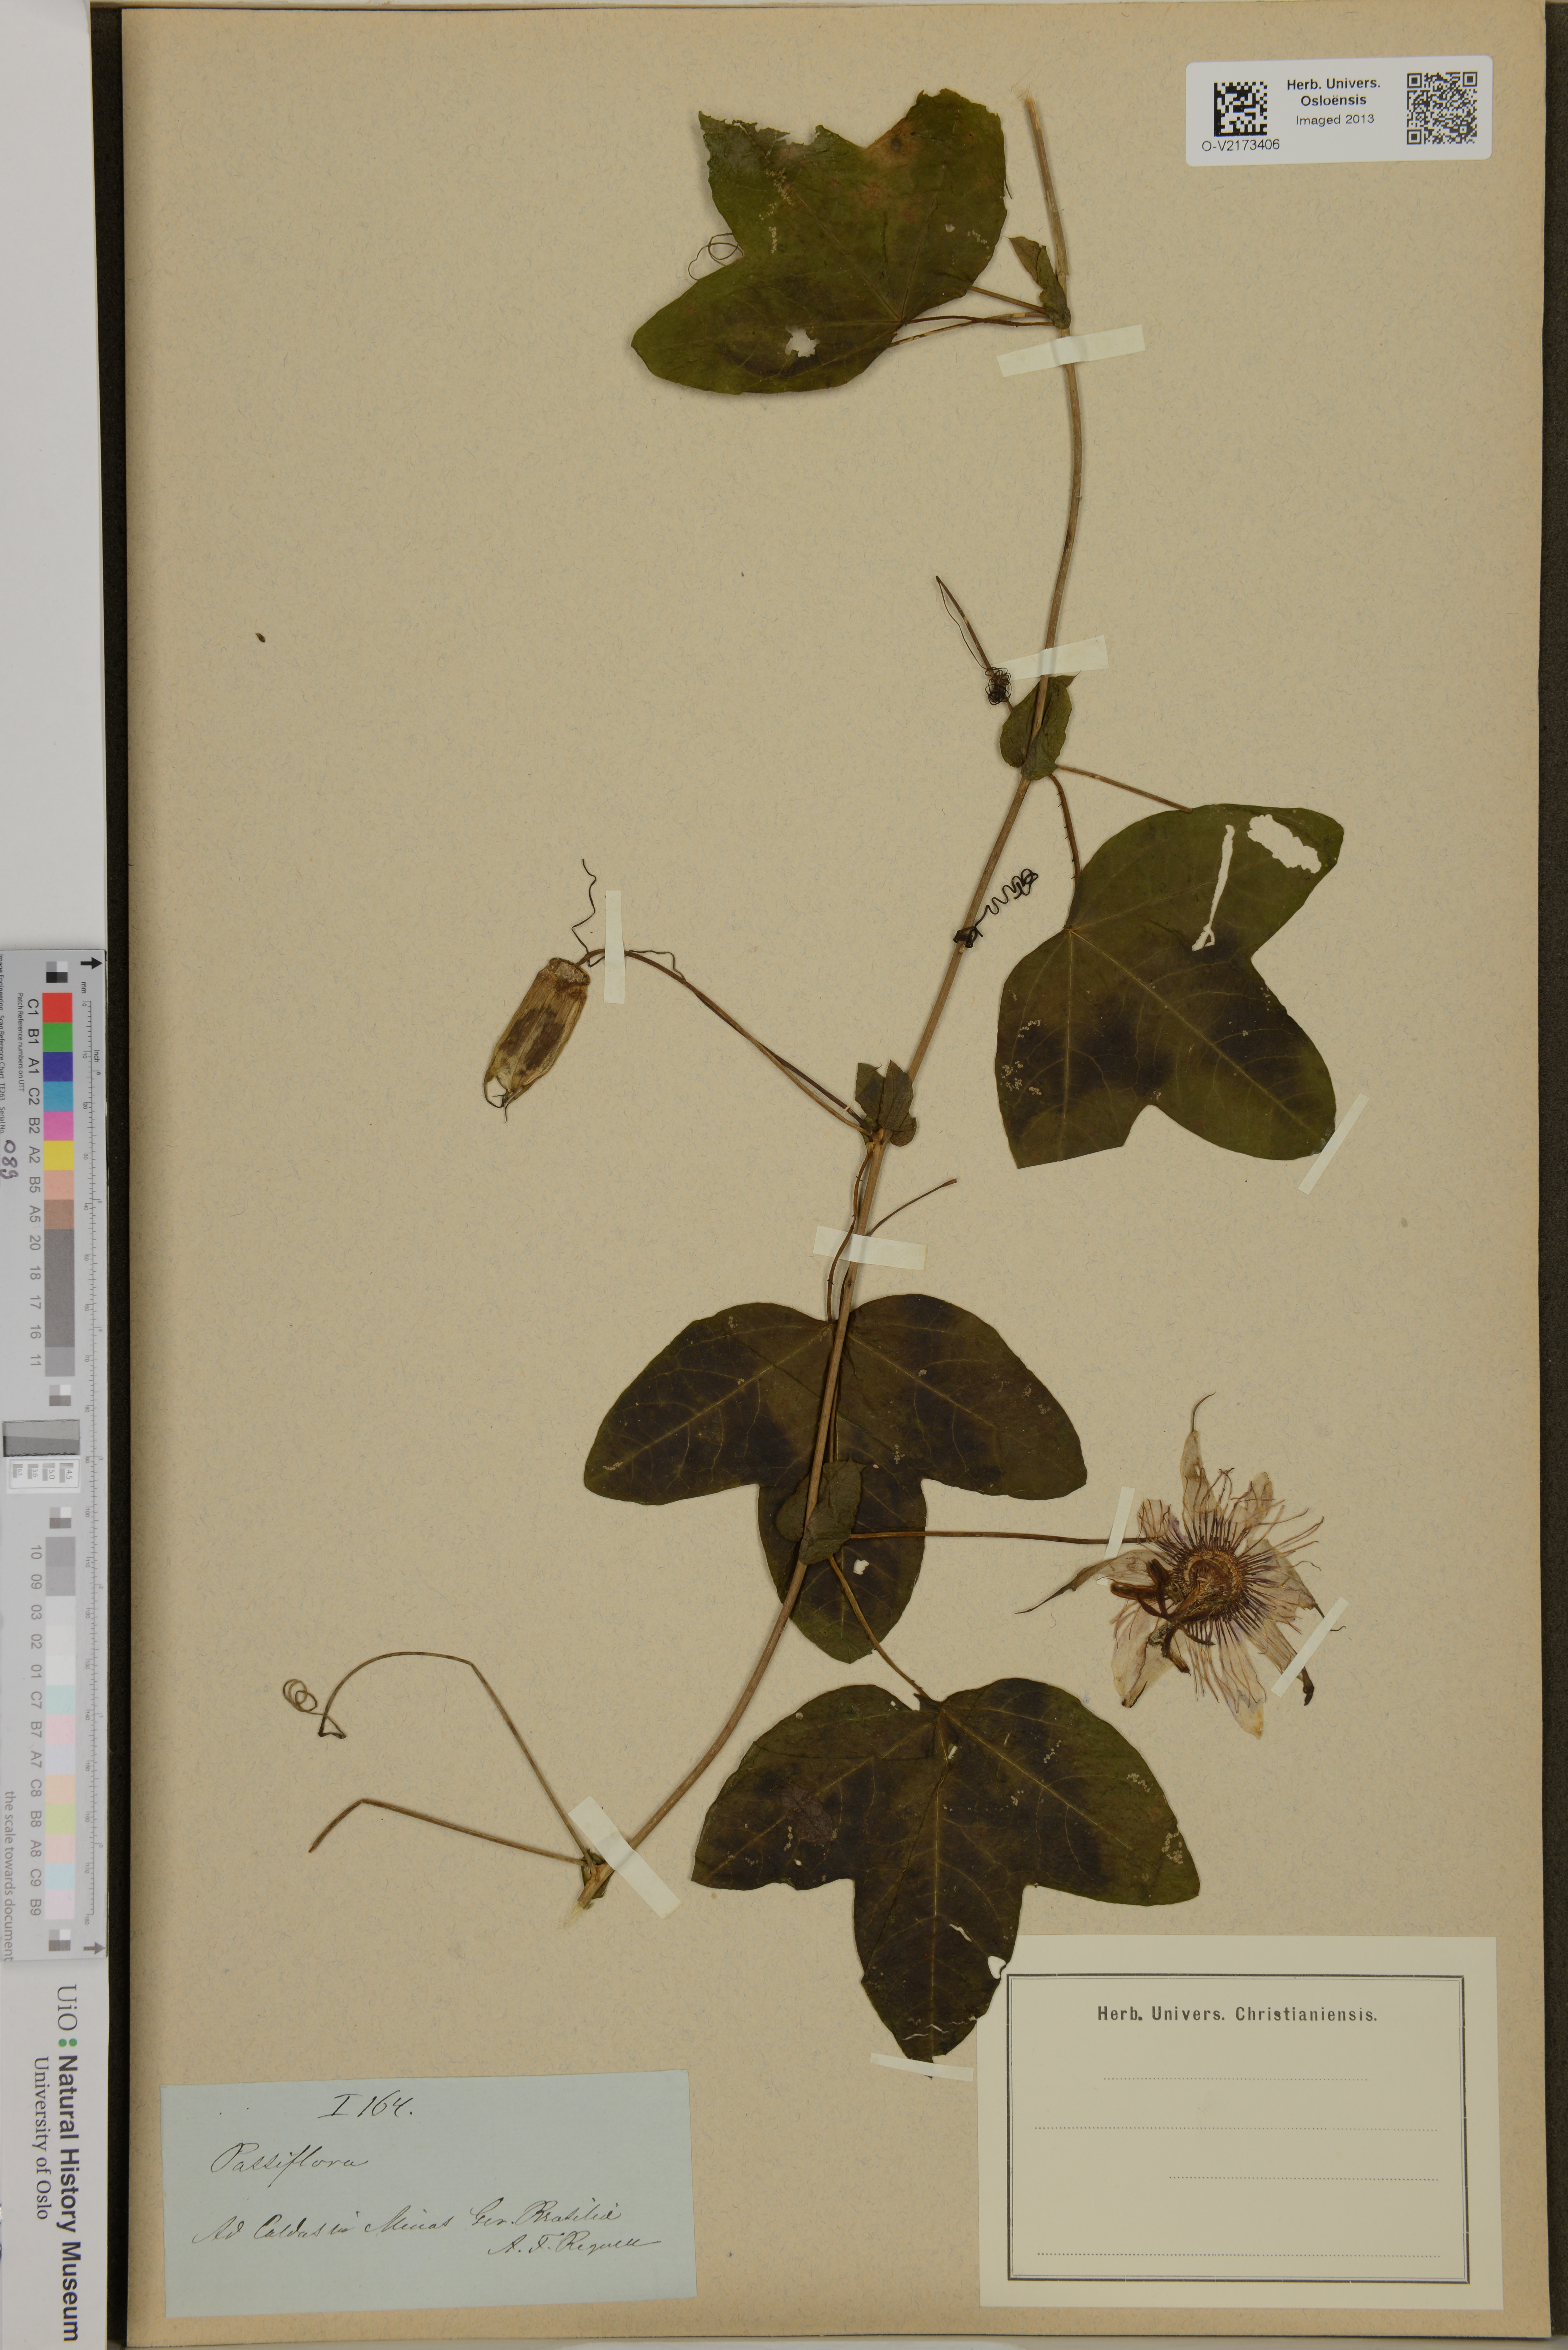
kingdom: Plantae
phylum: Tracheophyta
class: Magnoliopsida
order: Malpighiales
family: Passifloraceae
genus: Passiflora
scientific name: Passiflora
